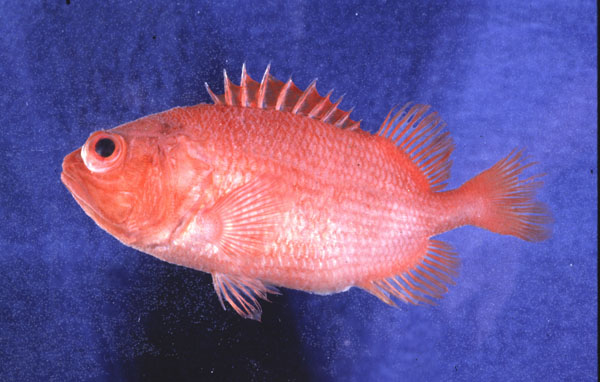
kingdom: Animalia
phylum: Chordata
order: Beryciformes
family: Holocentridae
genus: Plectrypops
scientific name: Plectrypops lima
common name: Cardinal soldierfish
